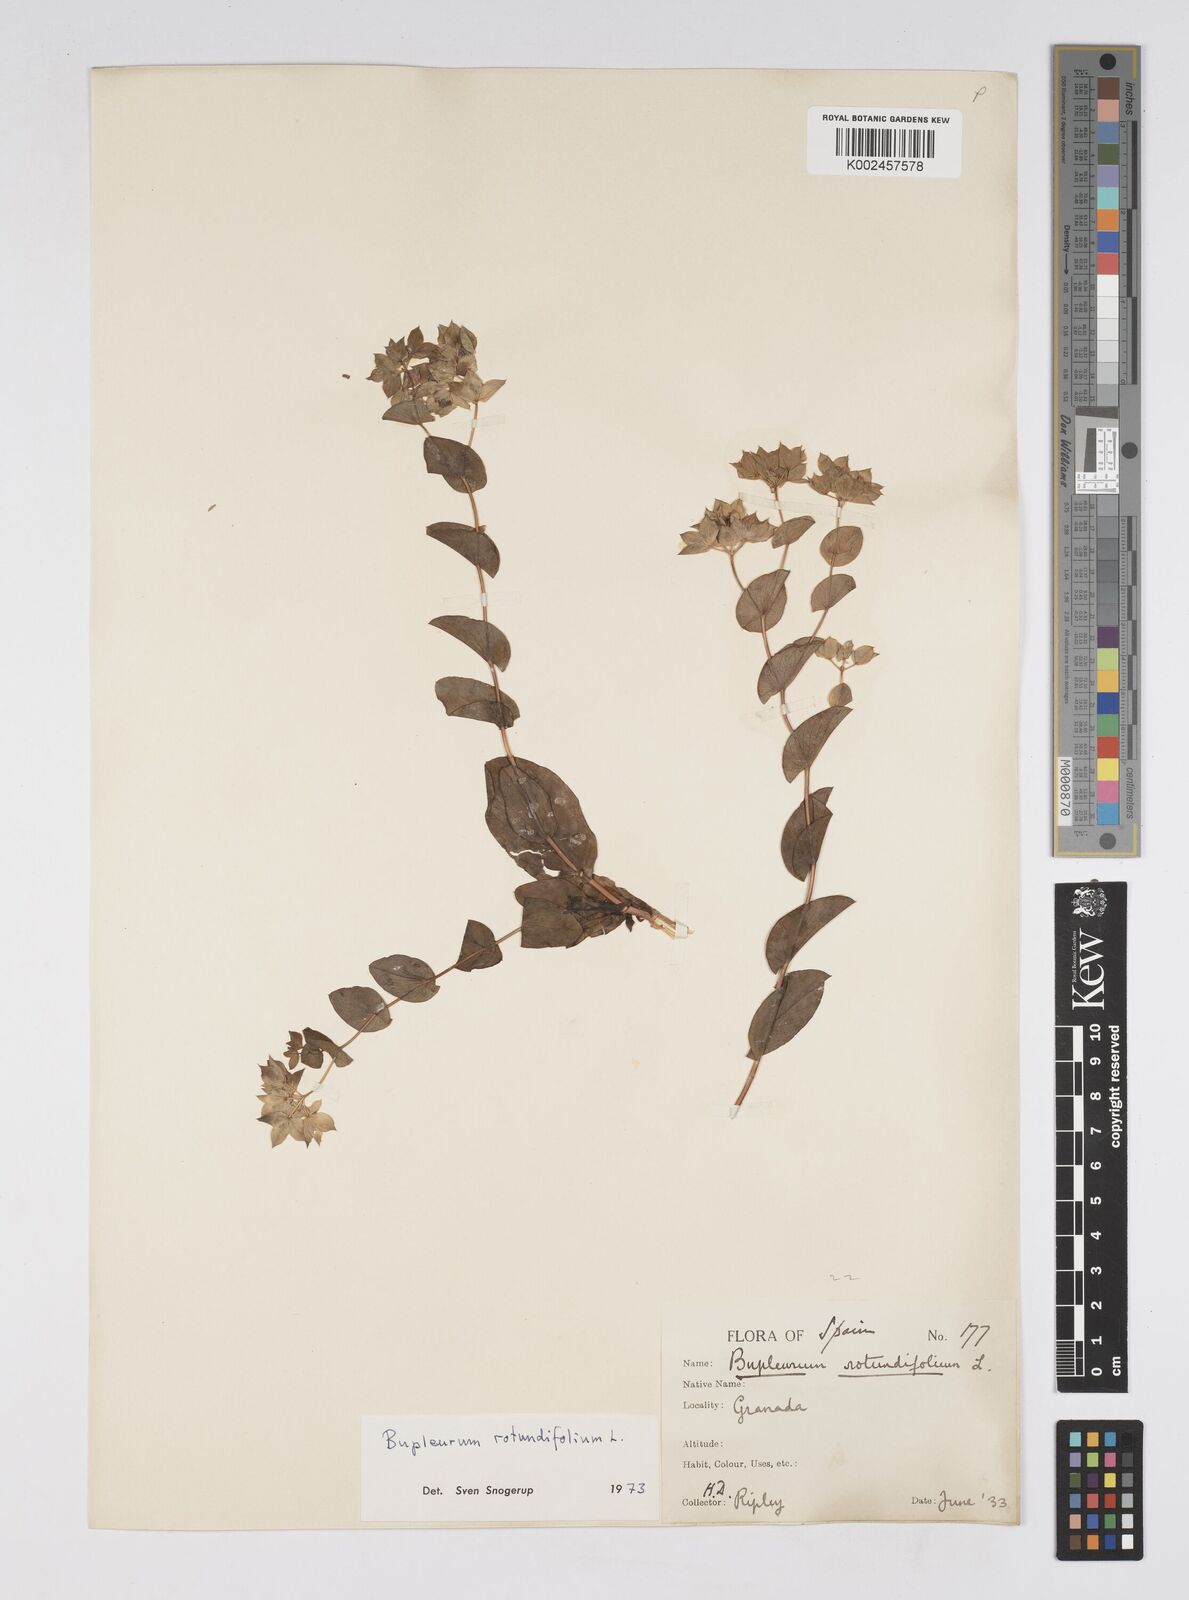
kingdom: Plantae
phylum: Tracheophyta
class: Magnoliopsida
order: Apiales
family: Apiaceae
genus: Bupleurum
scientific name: Bupleurum rotundifolium
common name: Thorow-wax
